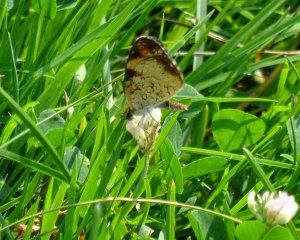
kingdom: Animalia
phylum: Arthropoda
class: Insecta
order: Lepidoptera
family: Nymphalidae
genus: Phyciodes
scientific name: Phyciodes tharos
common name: Pearl Crescent
